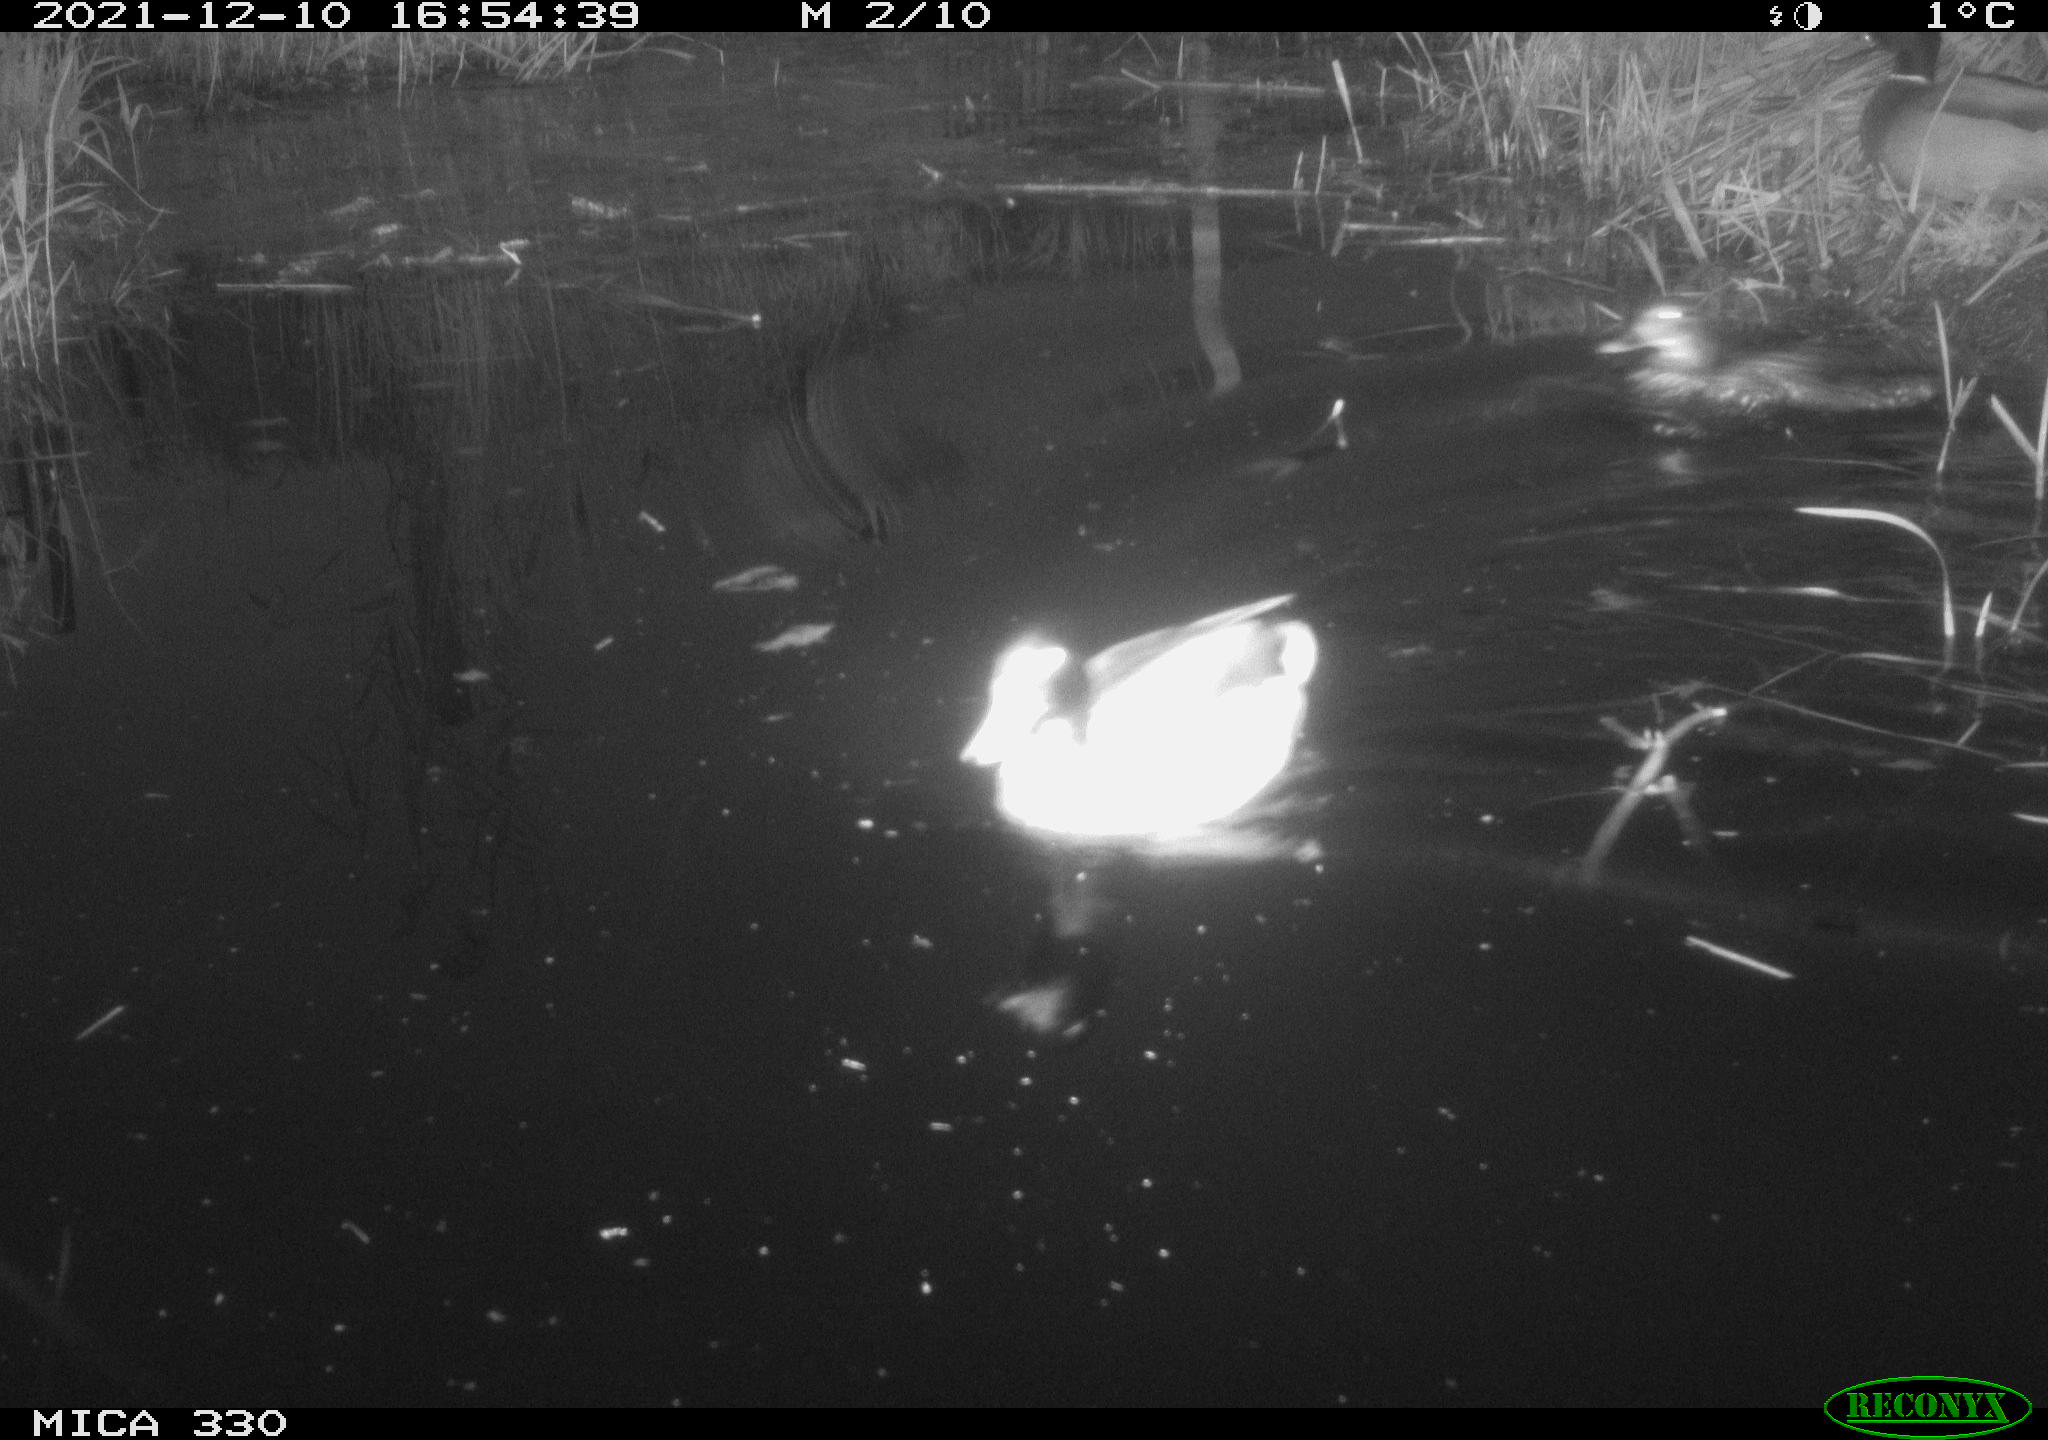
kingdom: Animalia
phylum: Chordata
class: Aves
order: Anseriformes
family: Anatidae
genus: Anas
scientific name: Anas platyrhynchos
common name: Mallard
